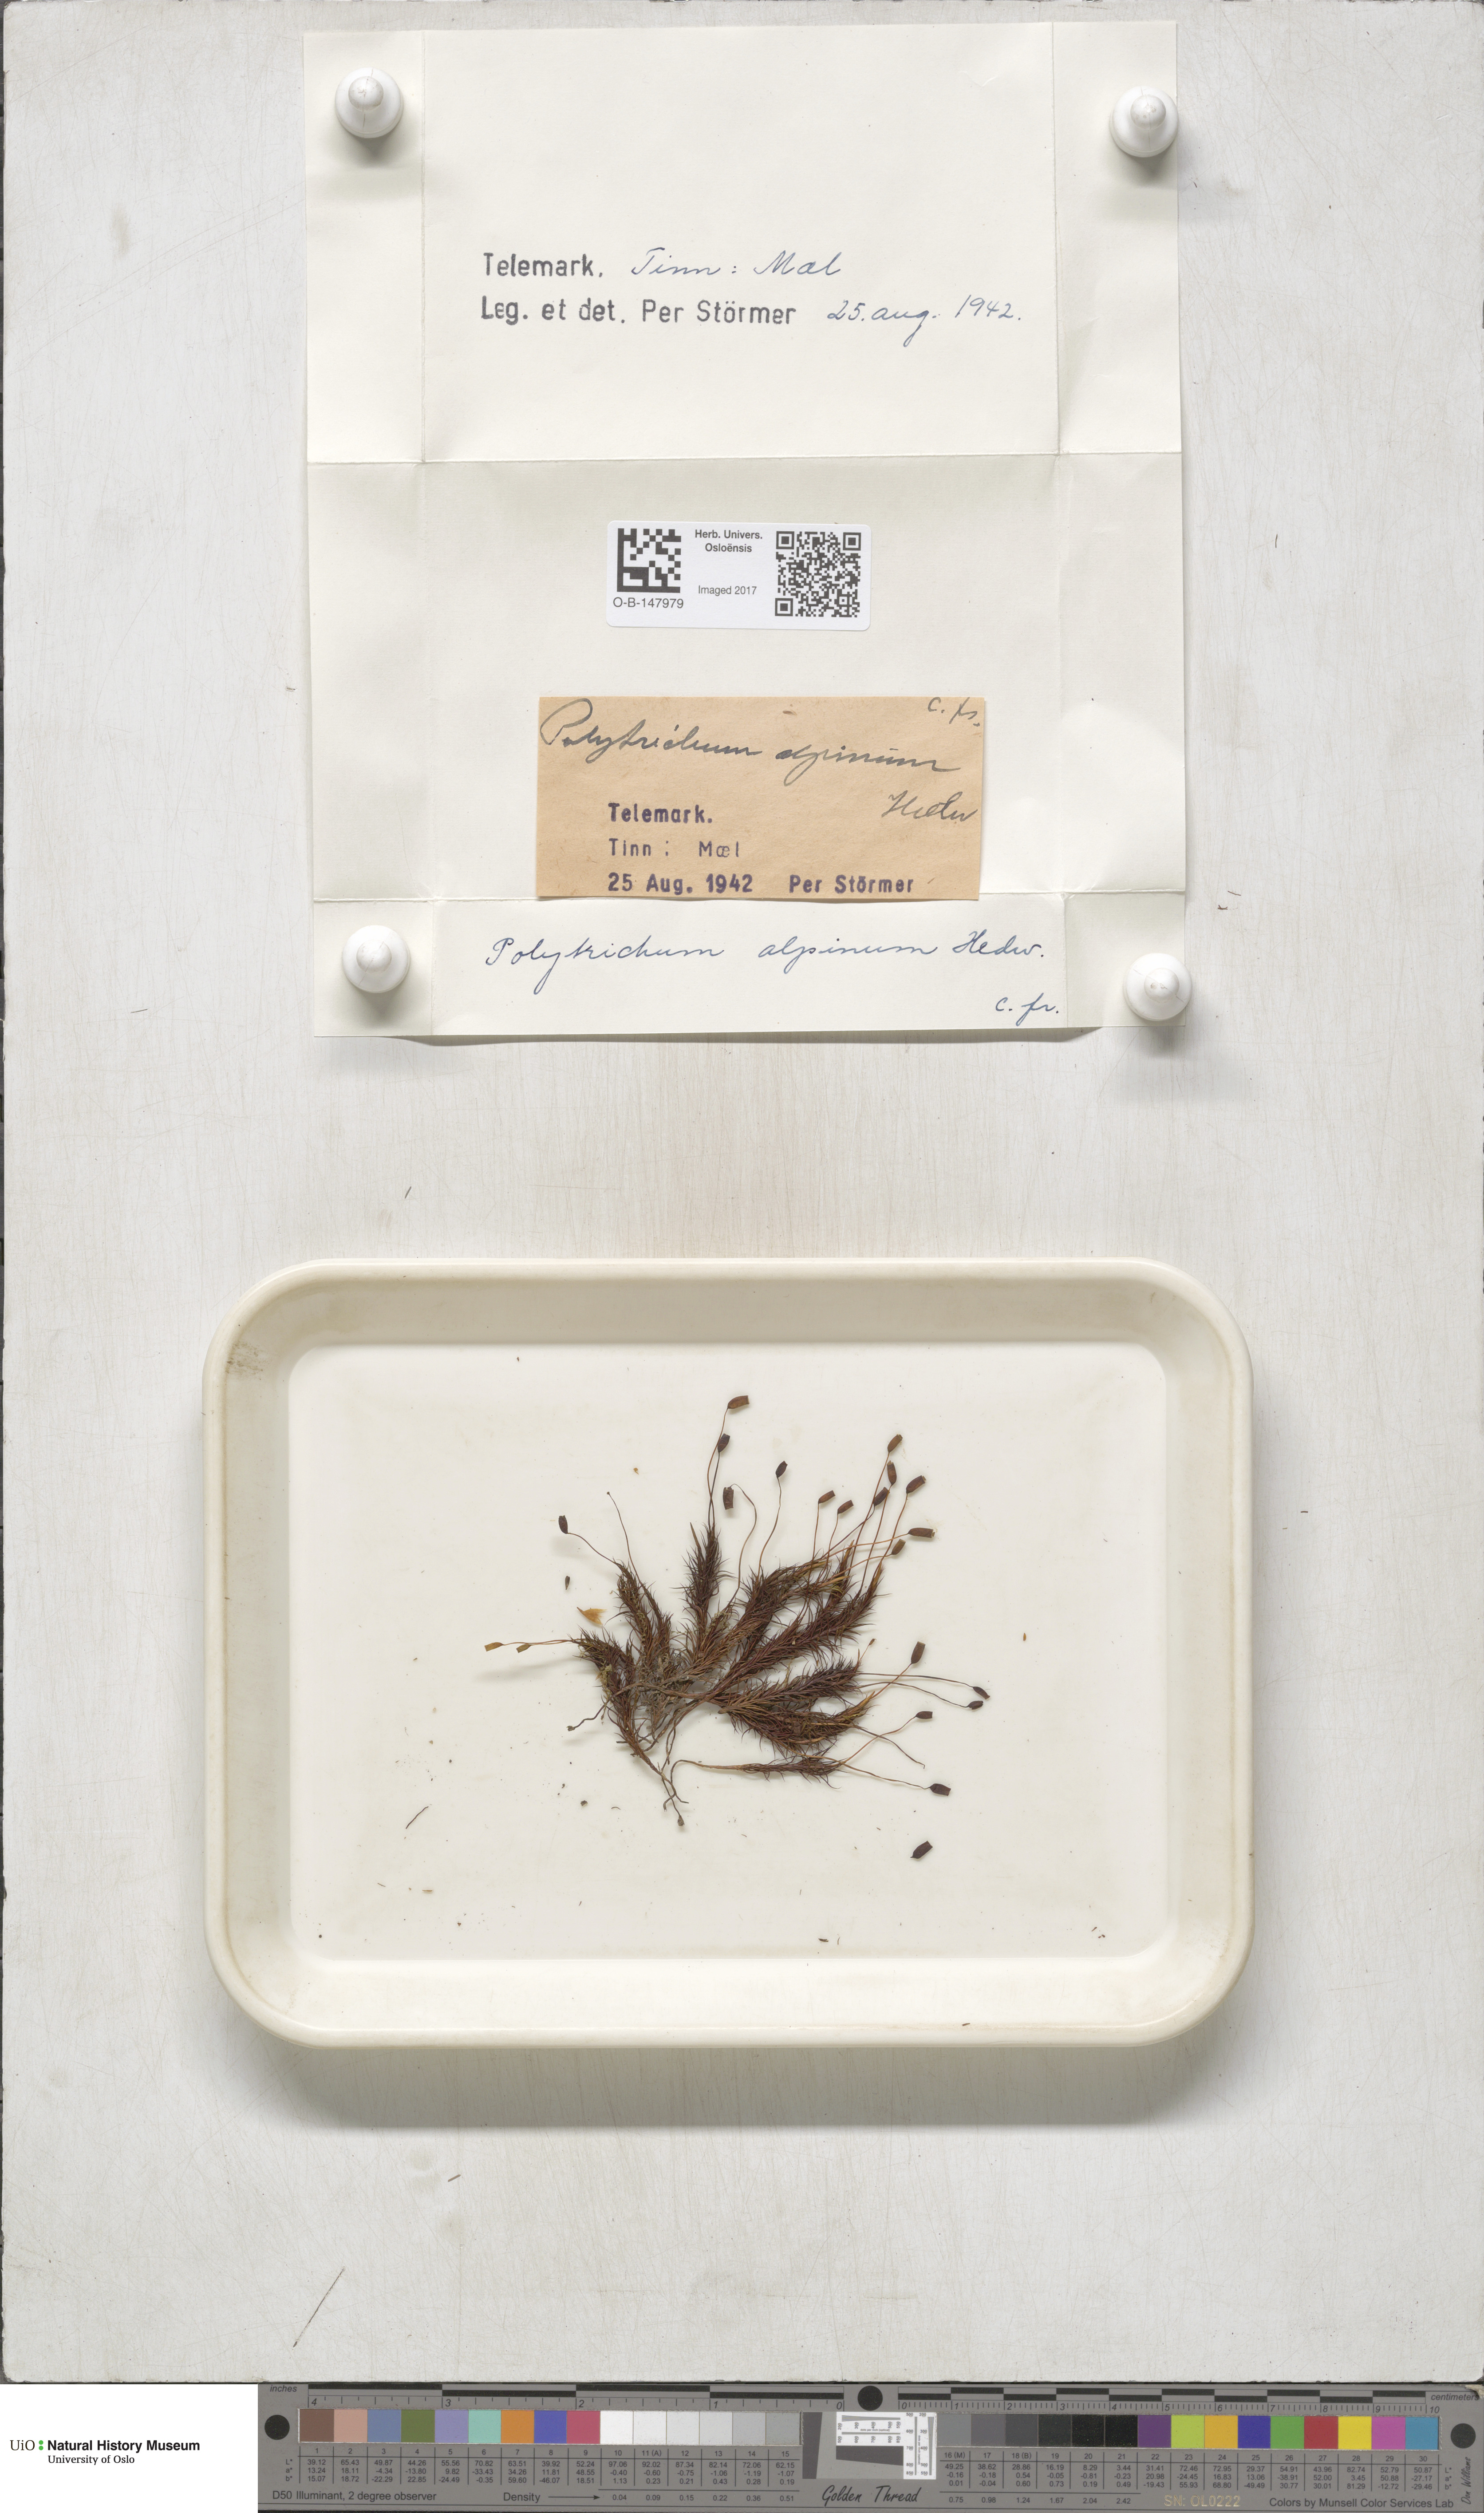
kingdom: Plantae
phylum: Bryophyta
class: Polytrichopsida
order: Polytrichales
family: Polytrichaceae
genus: Polytrichastrum
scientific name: Polytrichastrum alpinum
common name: Alpine haircap
